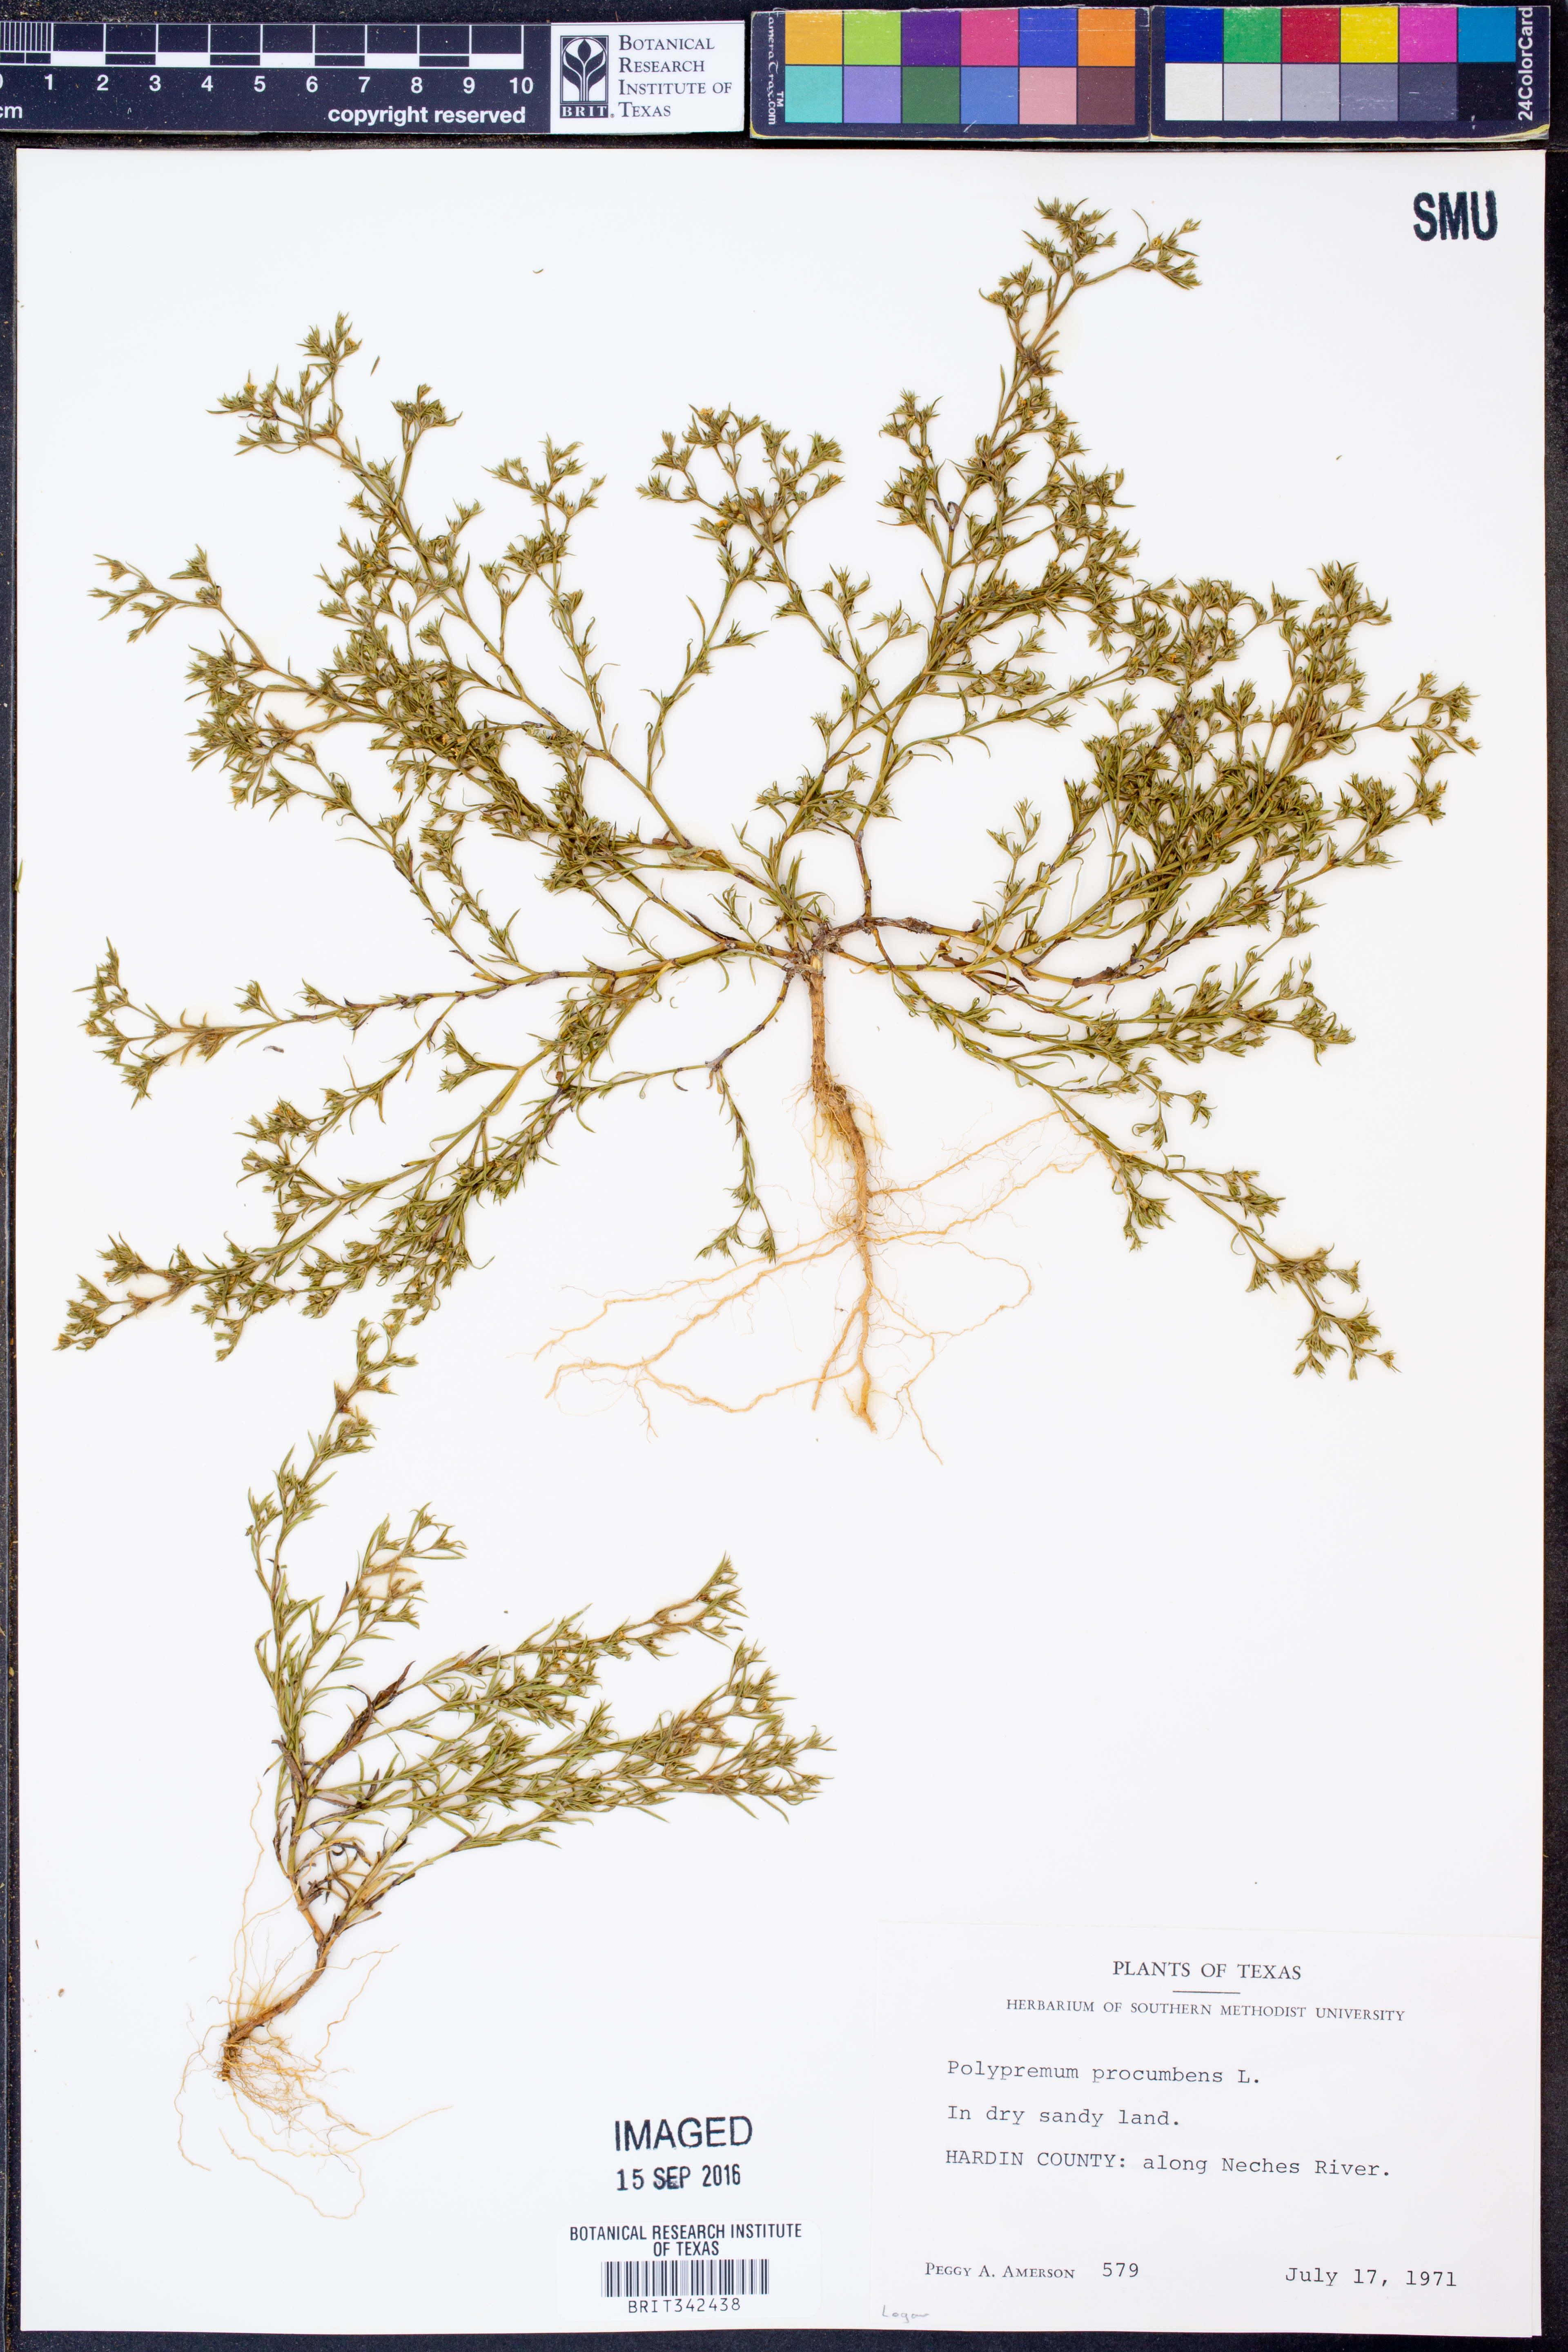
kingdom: Plantae
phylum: Tracheophyta
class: Magnoliopsida
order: Lamiales
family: Tetrachondraceae
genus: Polypremum
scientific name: Polypremum procumbens
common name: Juniper-leaf
